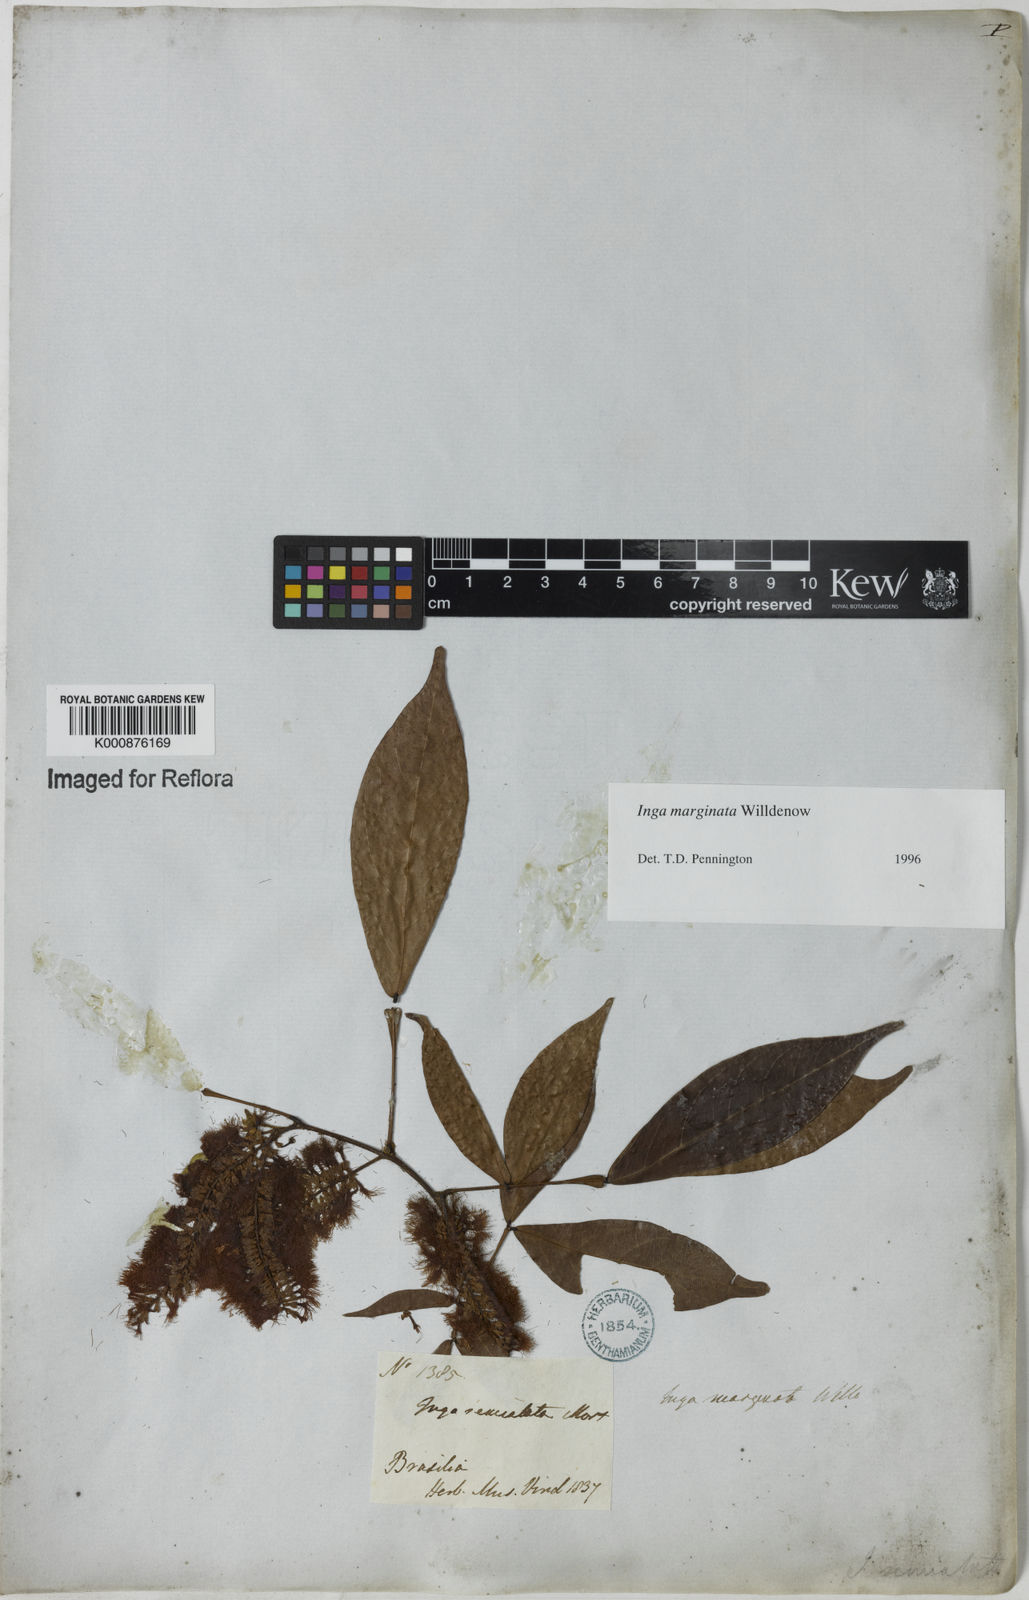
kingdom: Plantae
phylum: Tracheophyta
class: Magnoliopsida
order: Fabales
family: Fabaceae
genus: Inga
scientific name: Inga marginata
